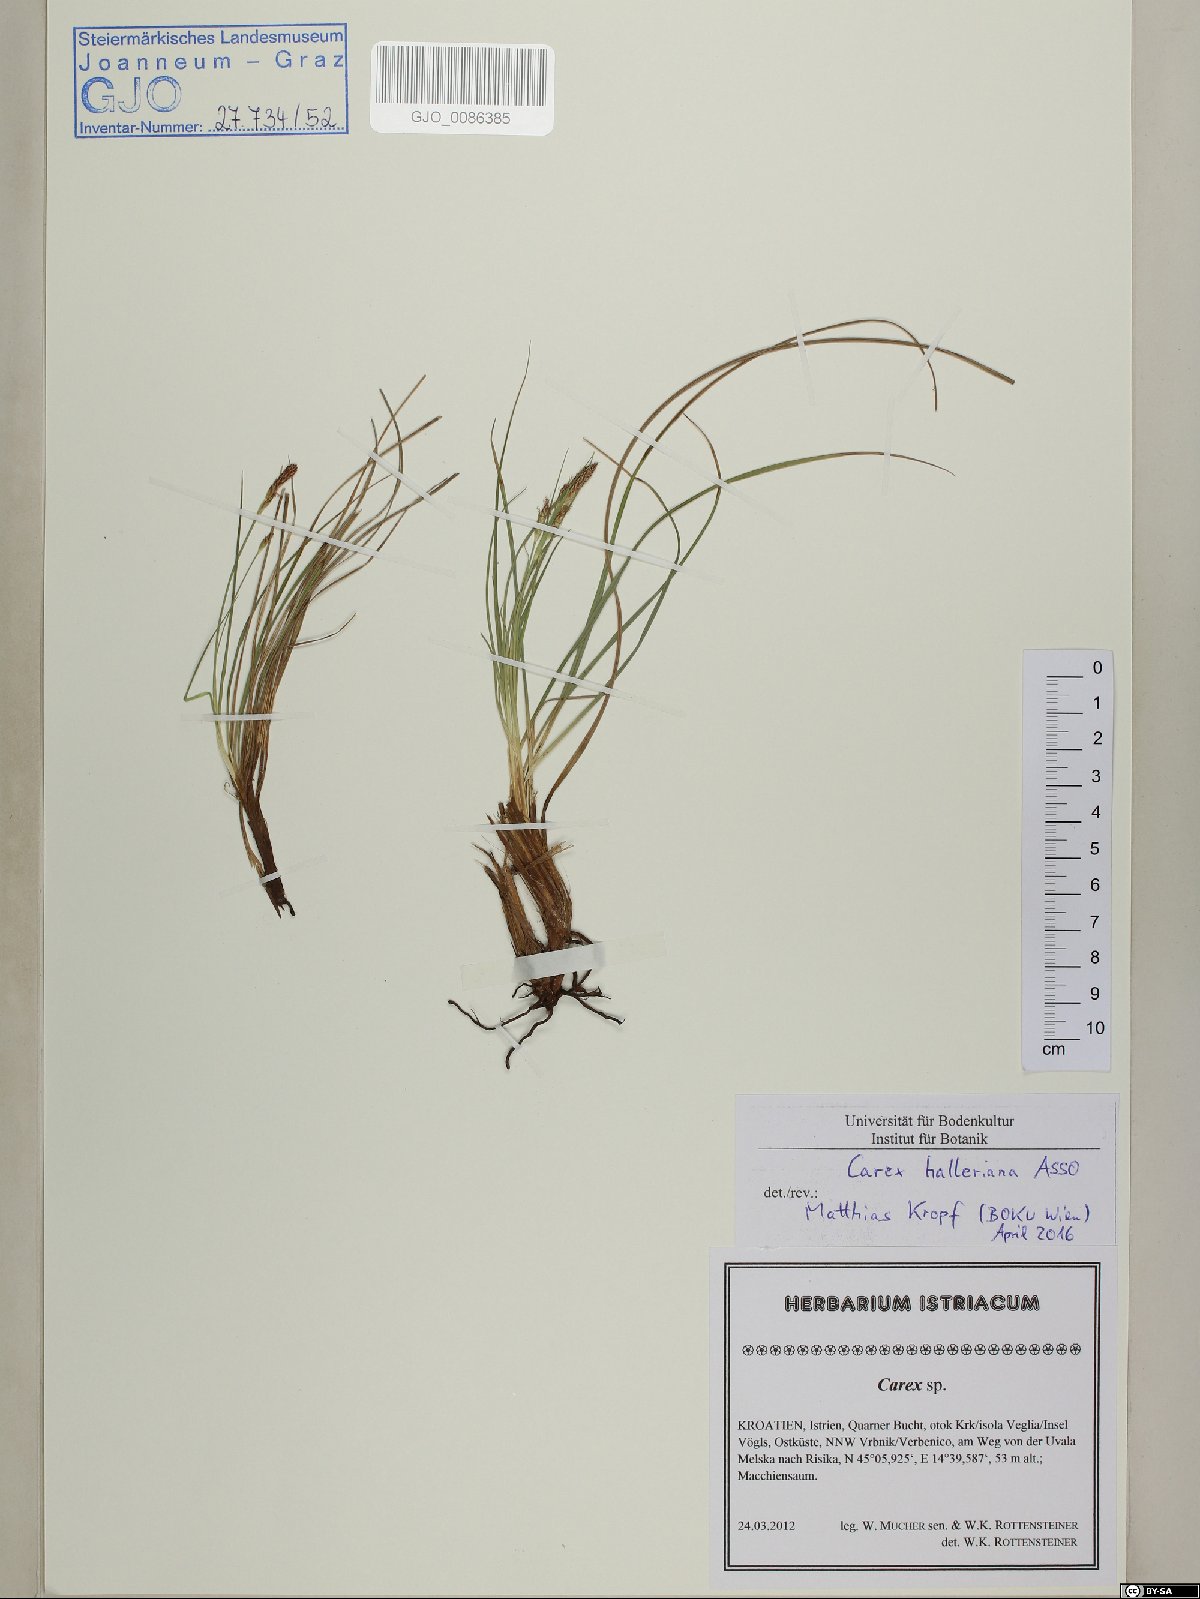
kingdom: Plantae
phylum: Tracheophyta
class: Liliopsida
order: Poales
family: Cyperaceae
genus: Carex
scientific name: Carex halleriana
